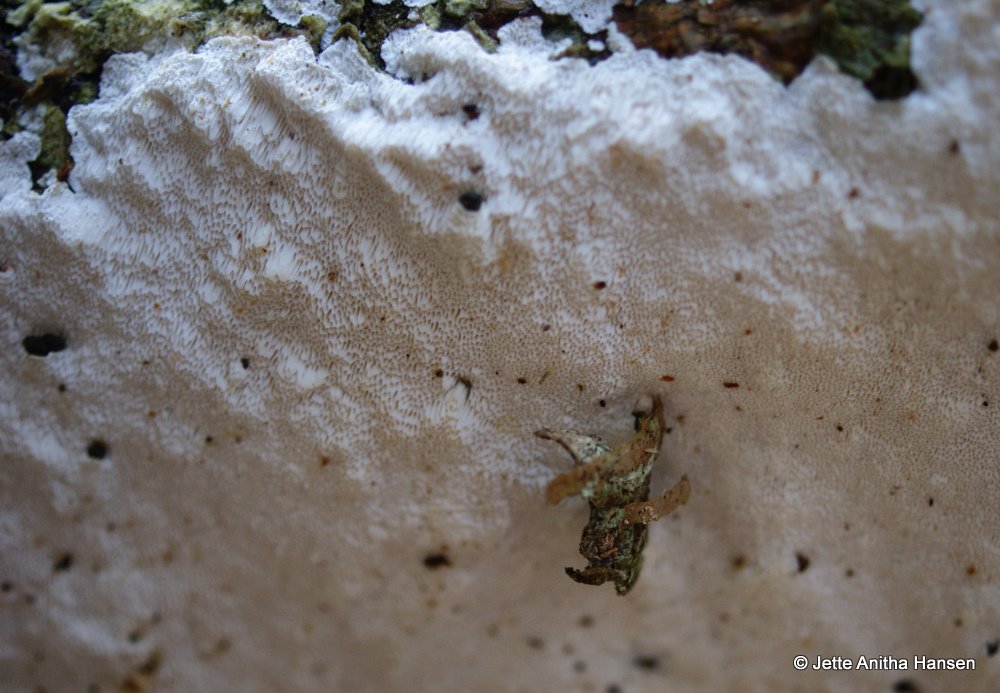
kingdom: Fungi
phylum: Basidiomycota
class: Agaricomycetes
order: Polyporales
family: Gelatoporiaceae
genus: Cinereomyces
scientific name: Cinereomyces lindbladii
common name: almindelig gråporesvamp
